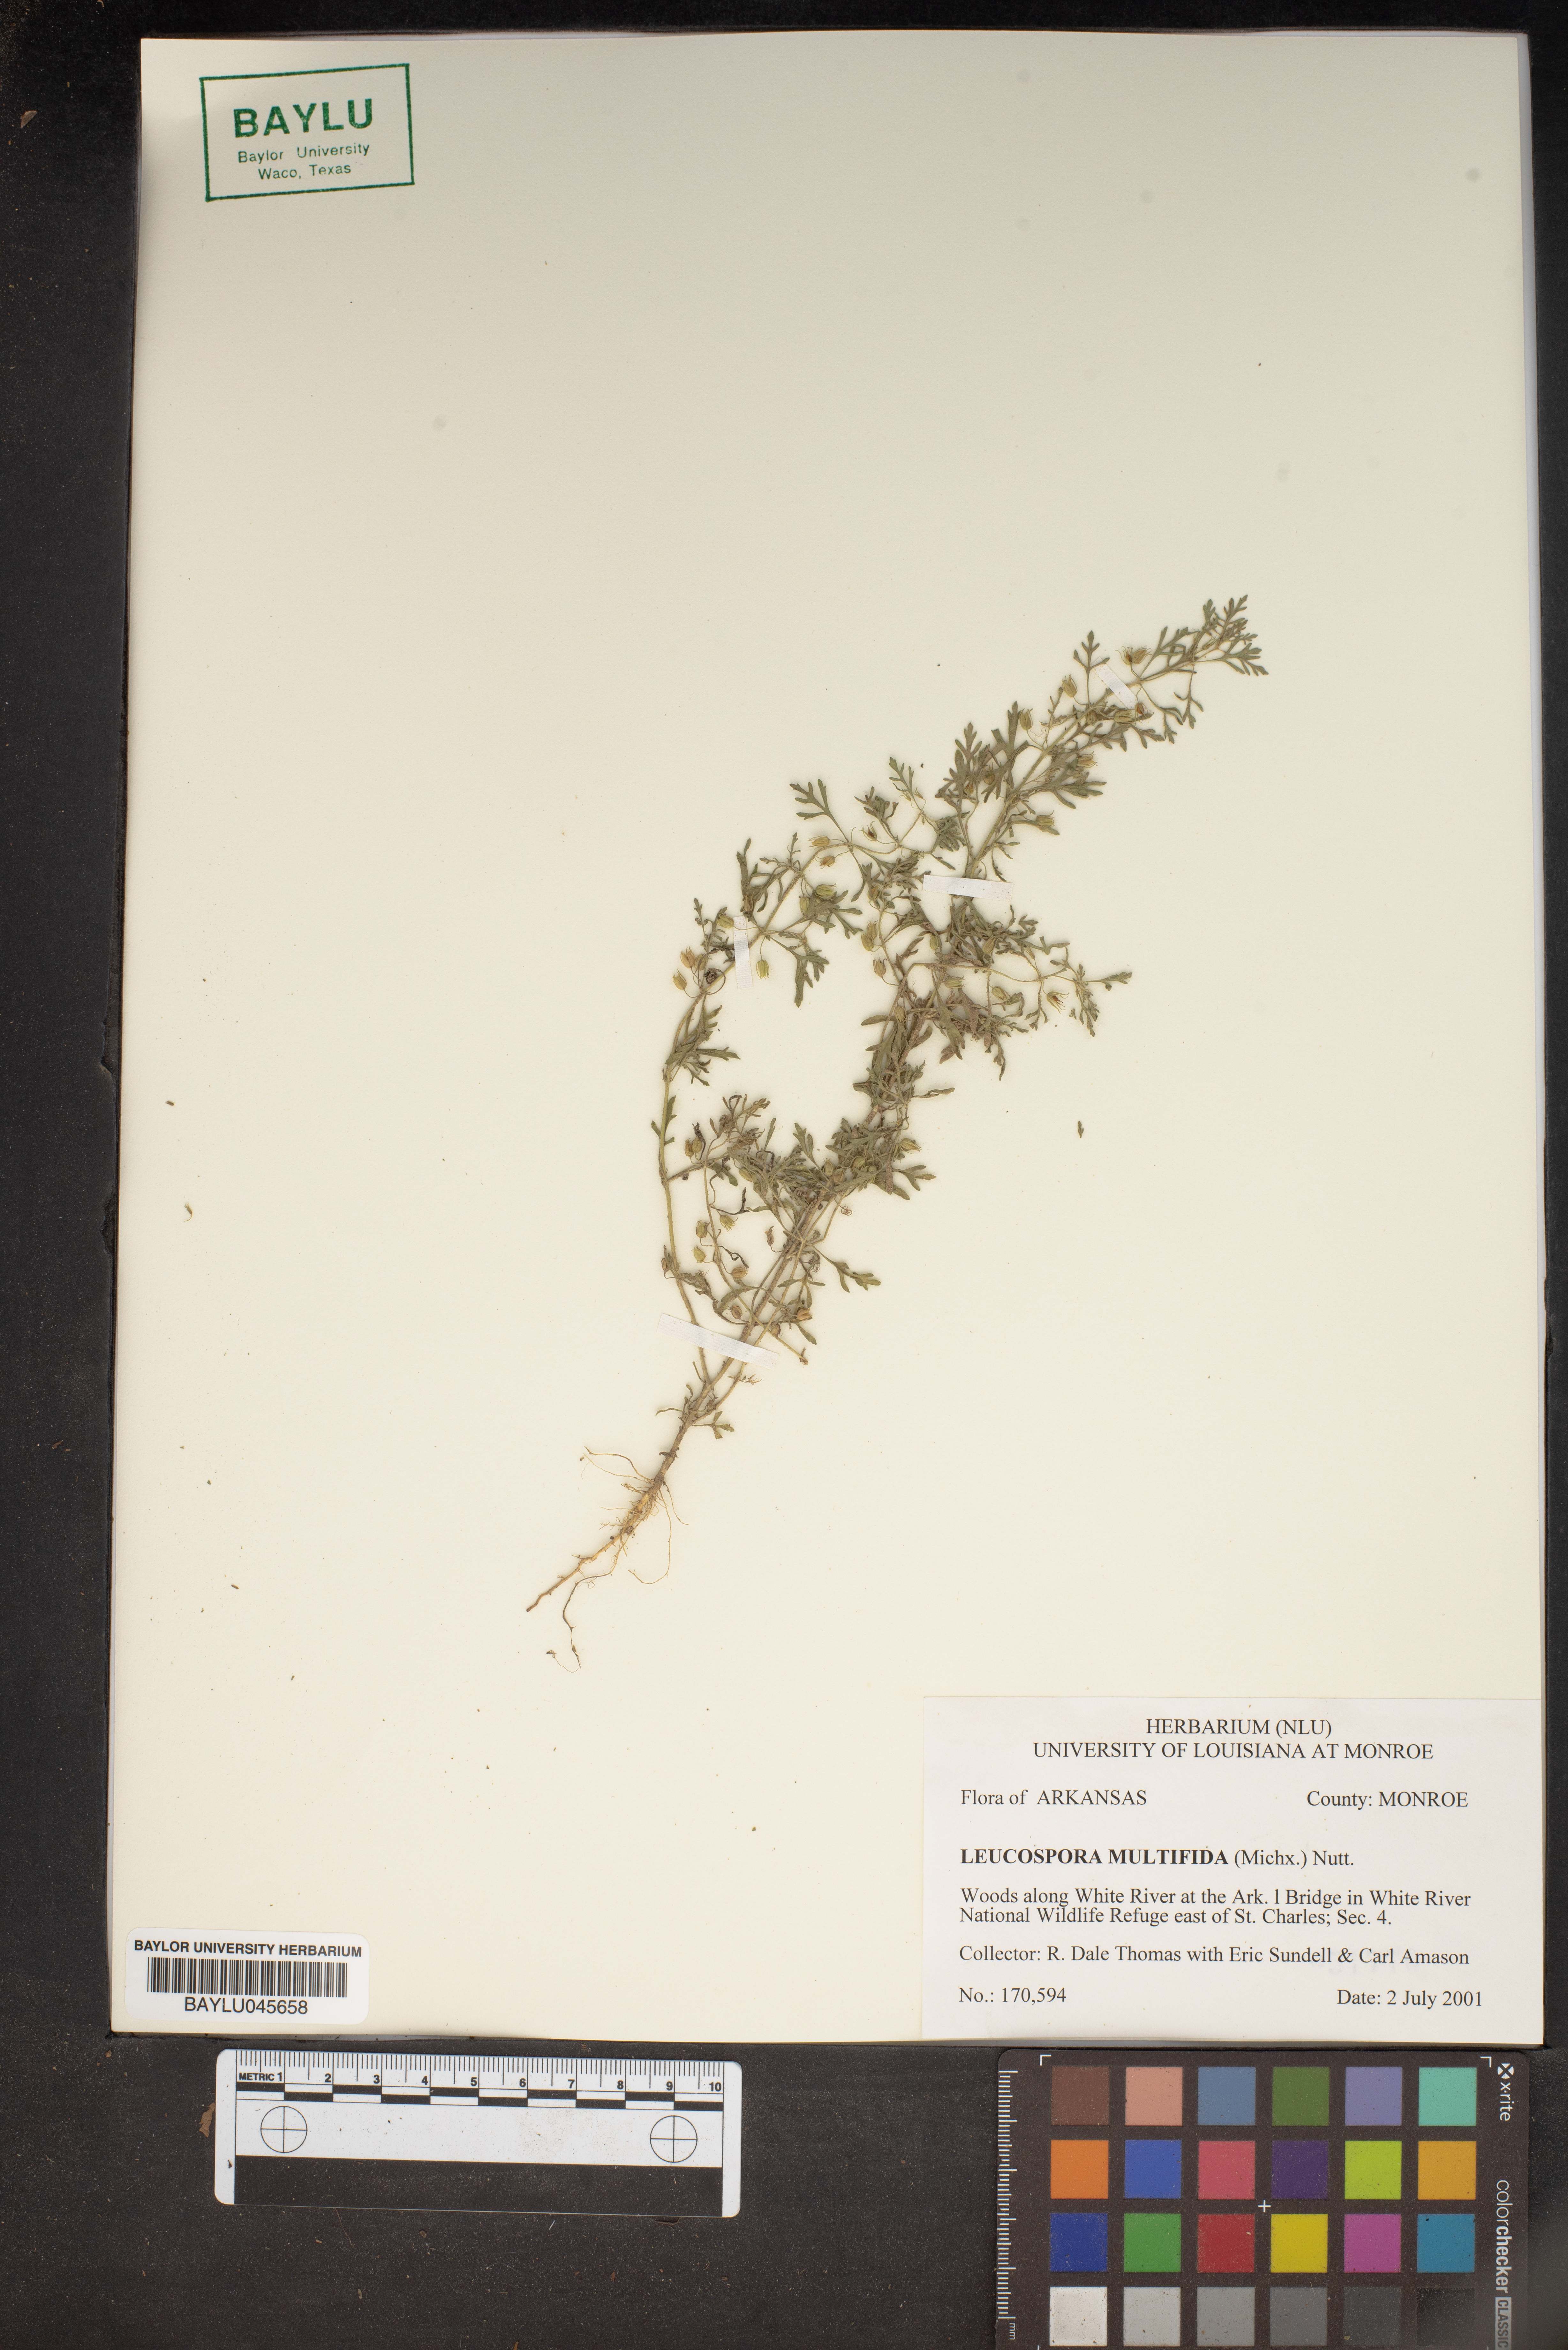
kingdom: Plantae
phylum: Tracheophyta
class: Magnoliopsida
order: Lamiales
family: Plantaginaceae
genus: Leucospora
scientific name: Leucospora multifida
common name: Narrow-leaf paleseed
